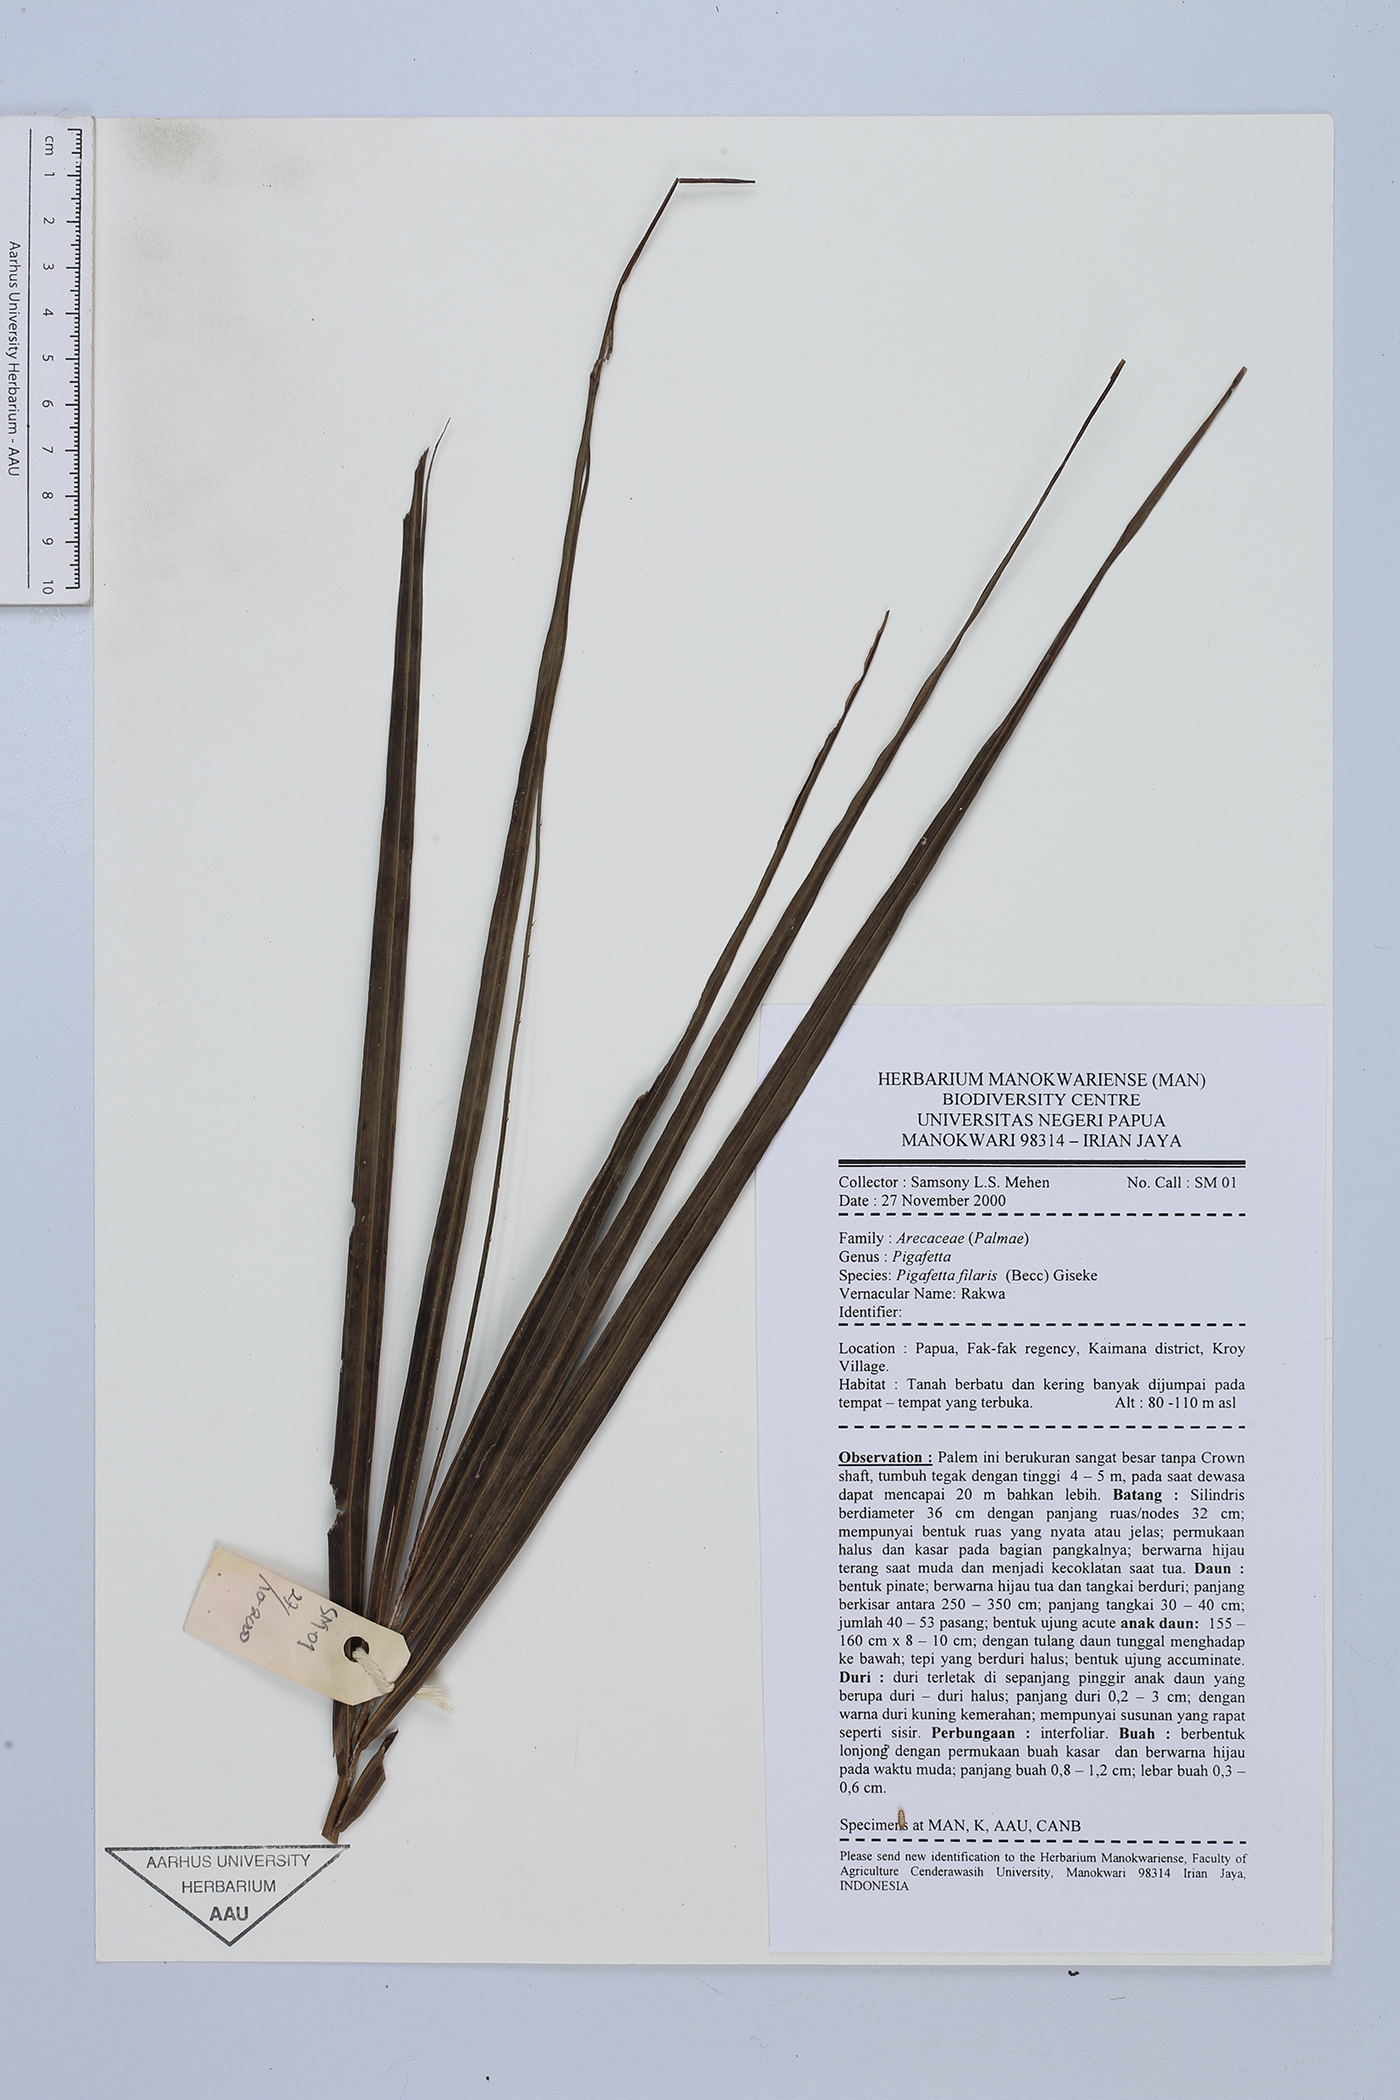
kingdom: Plantae
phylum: Tracheophyta
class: Liliopsida
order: Arecales
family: Arecaceae
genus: Pigafetta
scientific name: Pigafetta filaris
